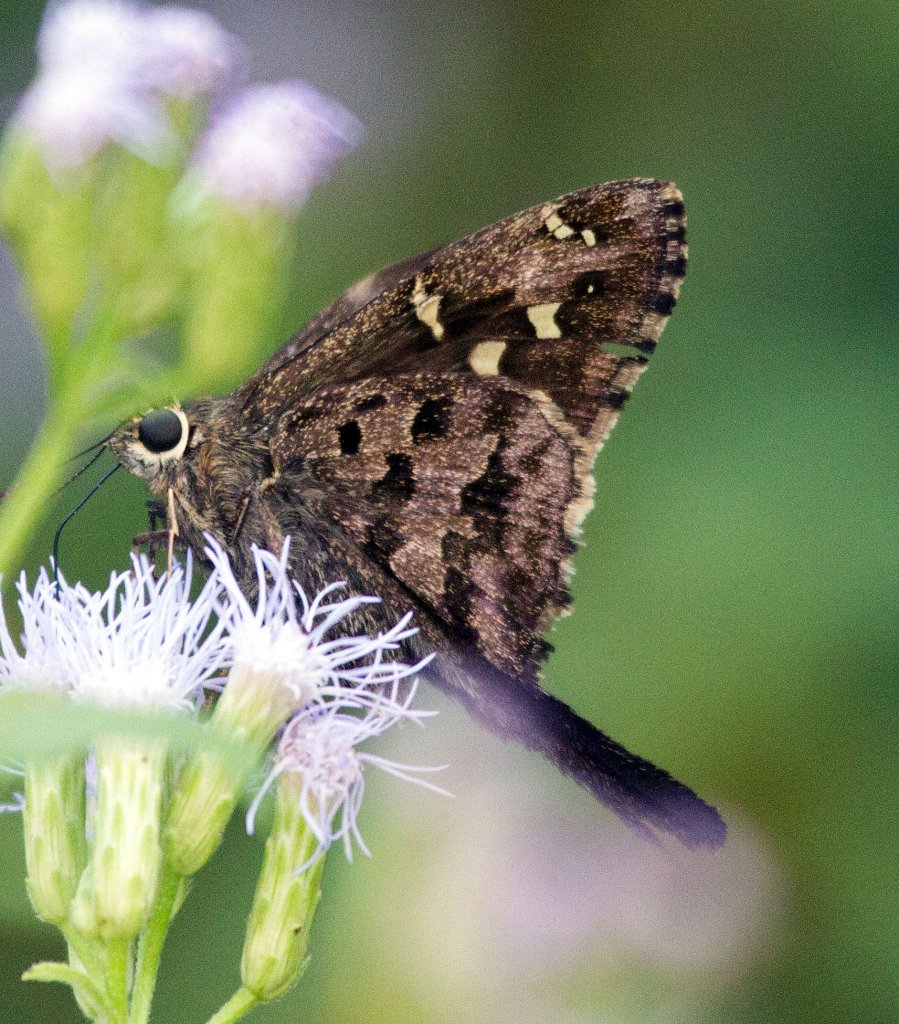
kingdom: Animalia
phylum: Arthropoda
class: Insecta
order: Lepidoptera
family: Hesperiidae
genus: Urbanus
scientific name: Urbanus dorantes
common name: Dorantes Longtail
